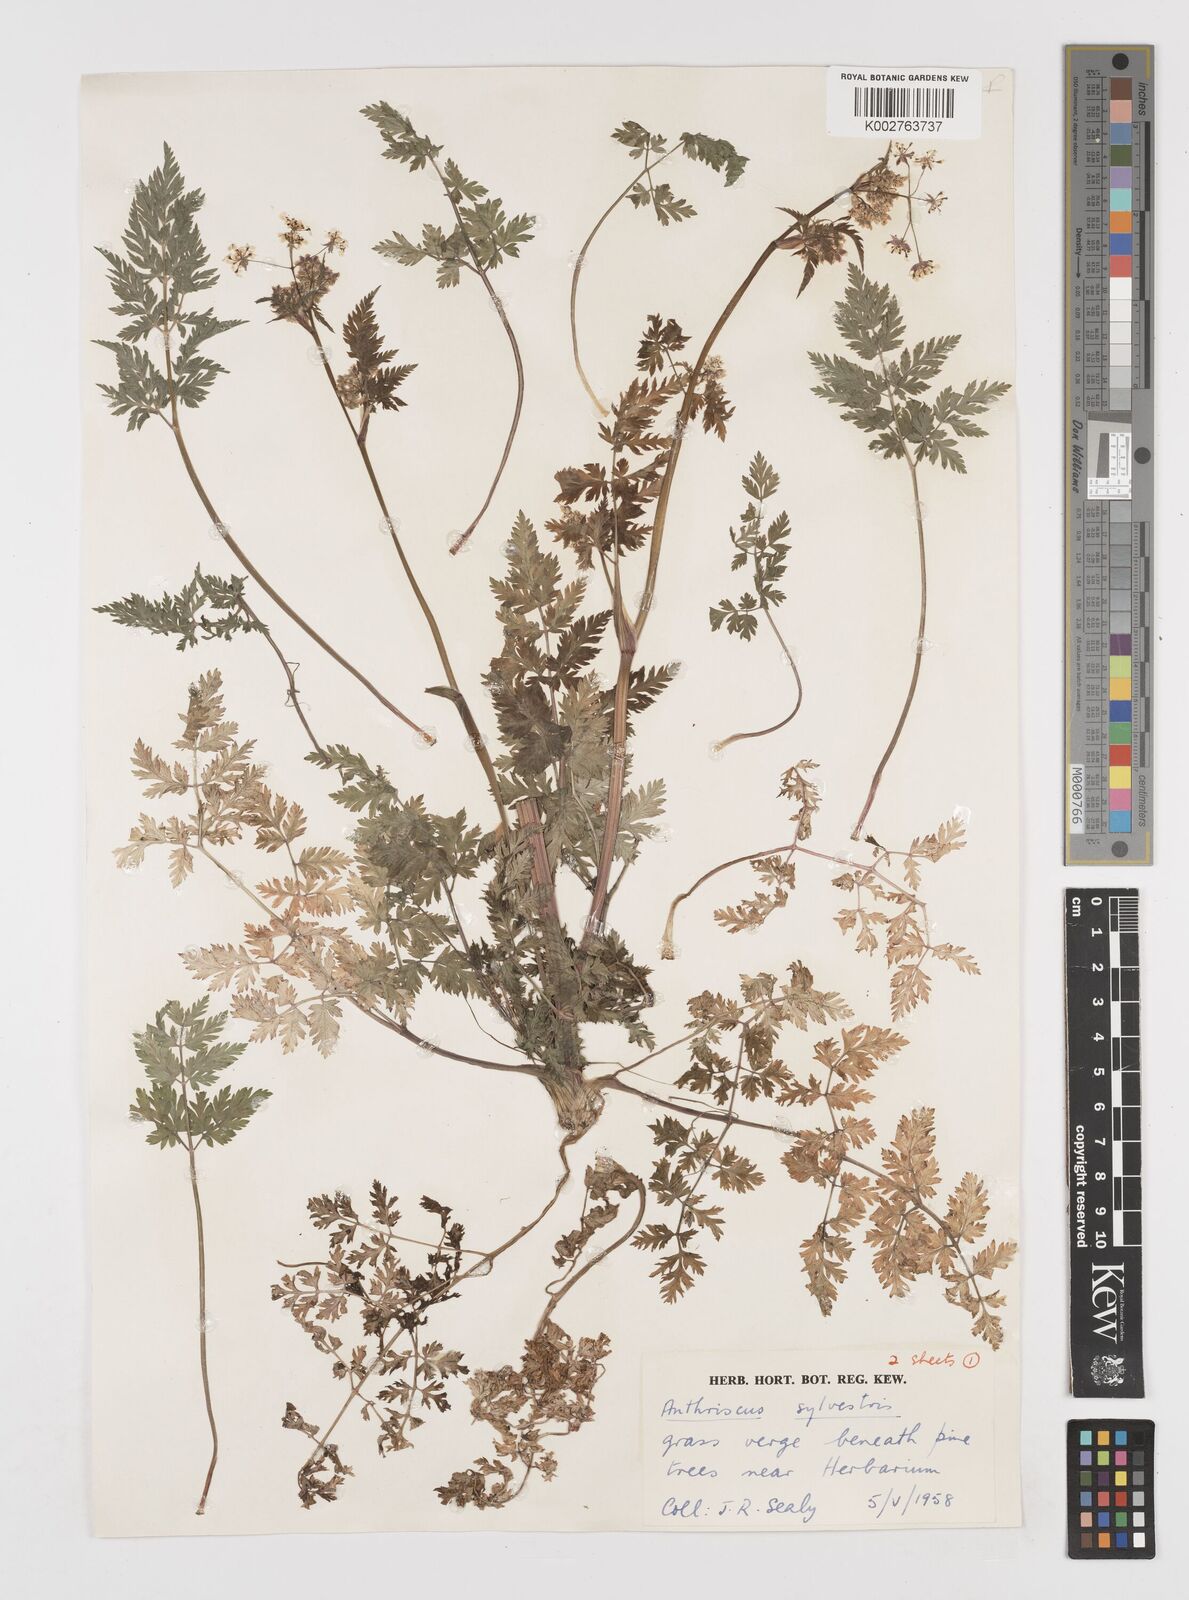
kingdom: Plantae
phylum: Tracheophyta
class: Magnoliopsida
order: Apiales
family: Apiaceae
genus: Anthriscus
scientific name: Anthriscus sylvestris
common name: Cow parsley
